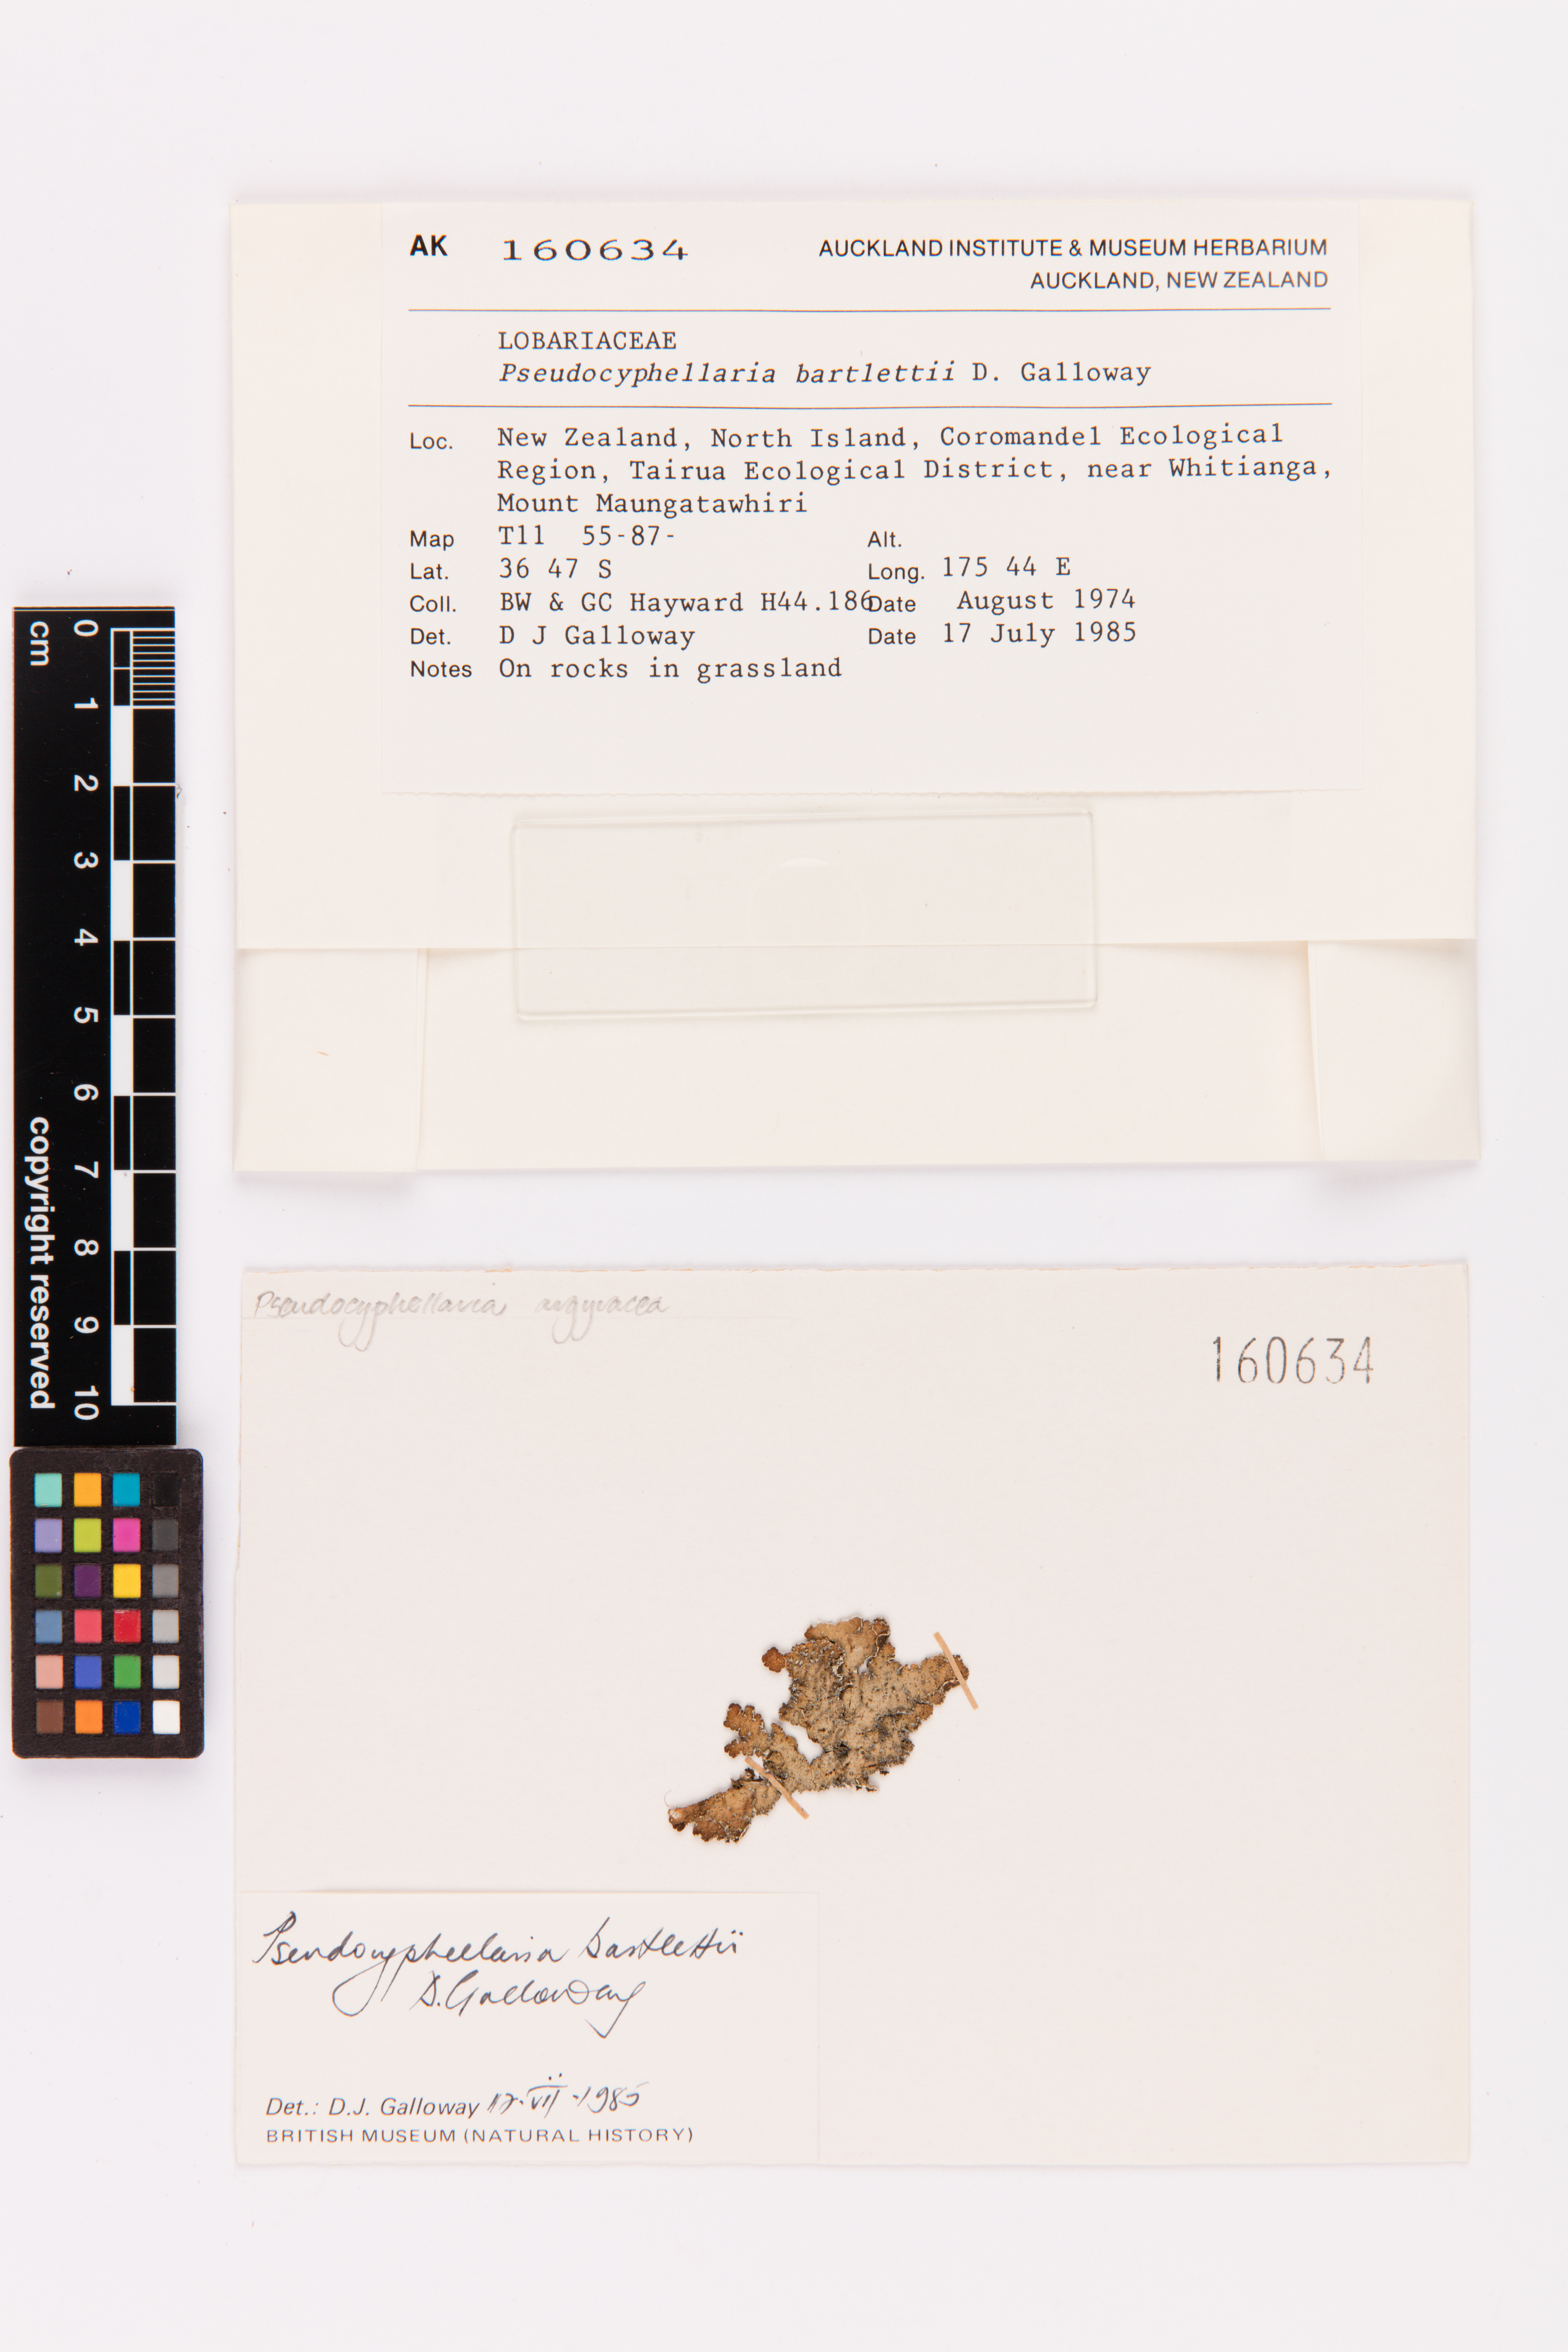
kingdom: Fungi
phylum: Ascomycota
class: Lecanoromycetes
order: Peltigerales
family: Lobariaceae
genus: Pseudocyphellaria
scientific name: Pseudocyphellaria bartlettii
